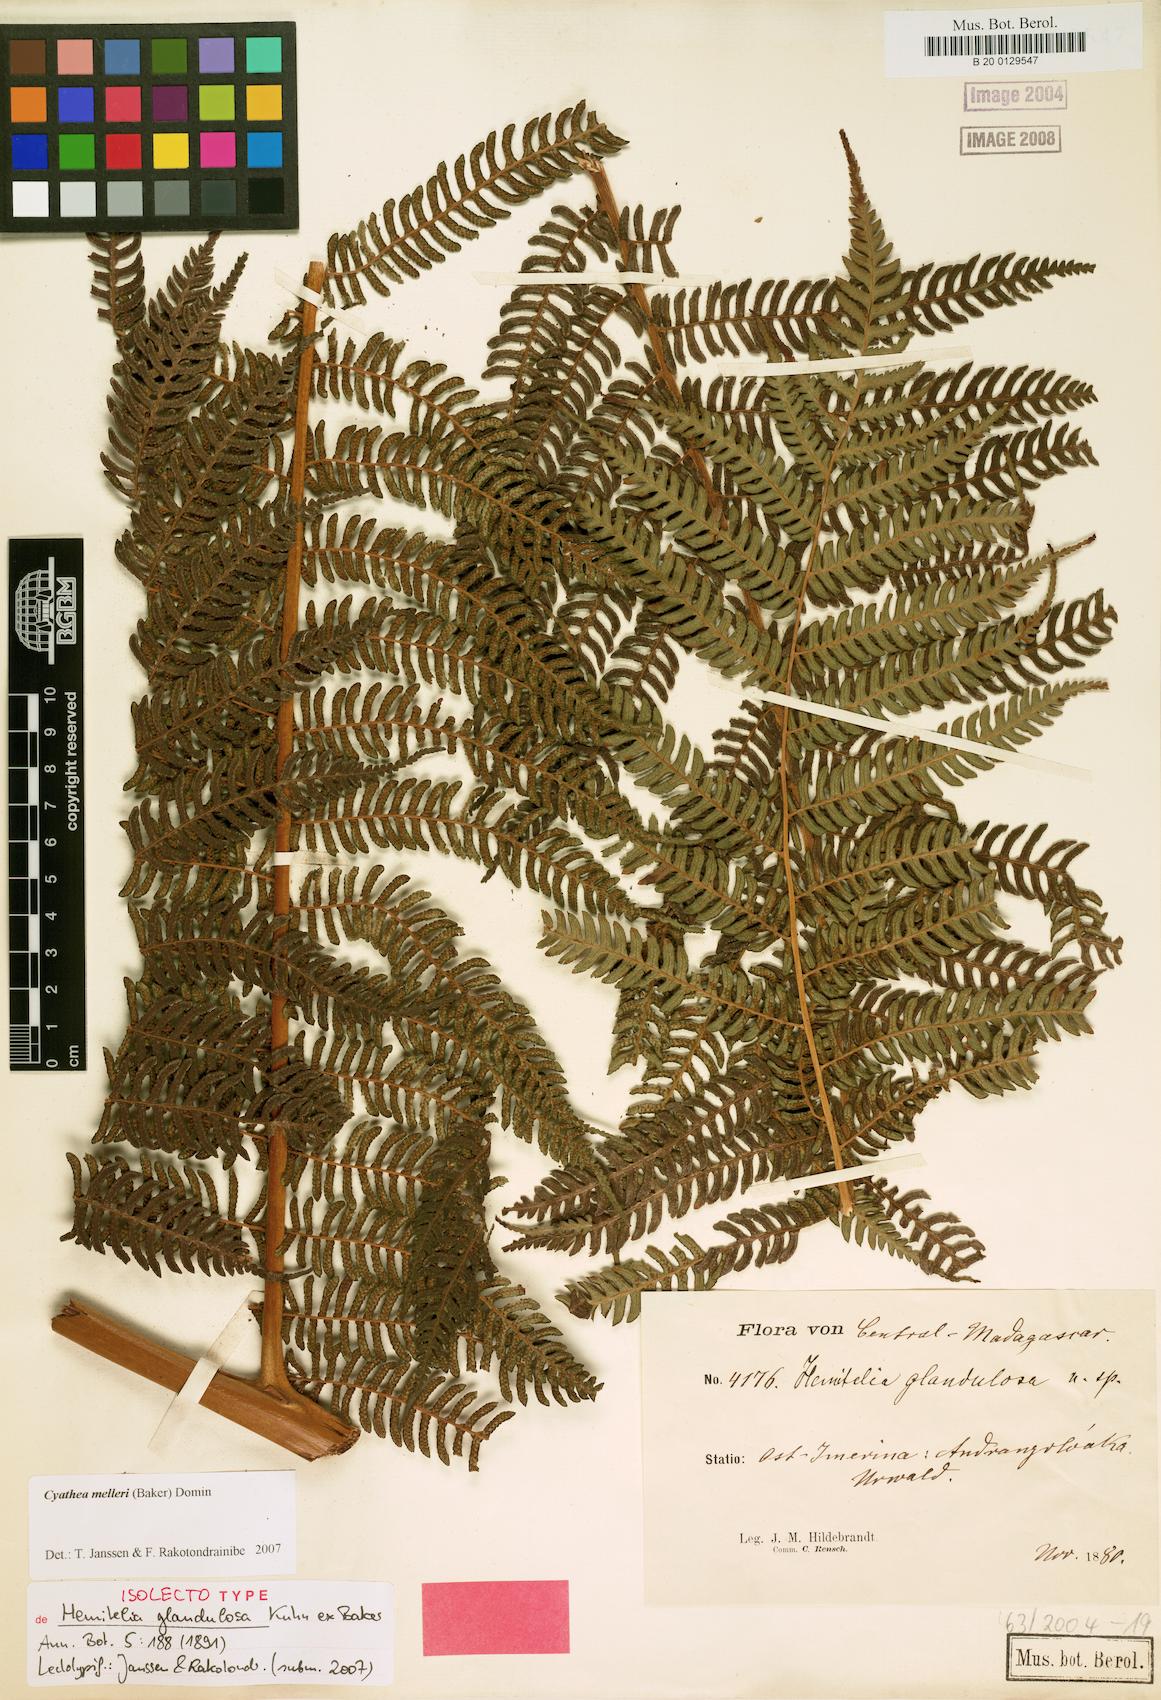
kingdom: Plantae
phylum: Tracheophyta
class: Polypodiopsida
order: Cyatheales
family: Cyatheaceae
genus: Alsophila
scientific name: Alsophila melleri
